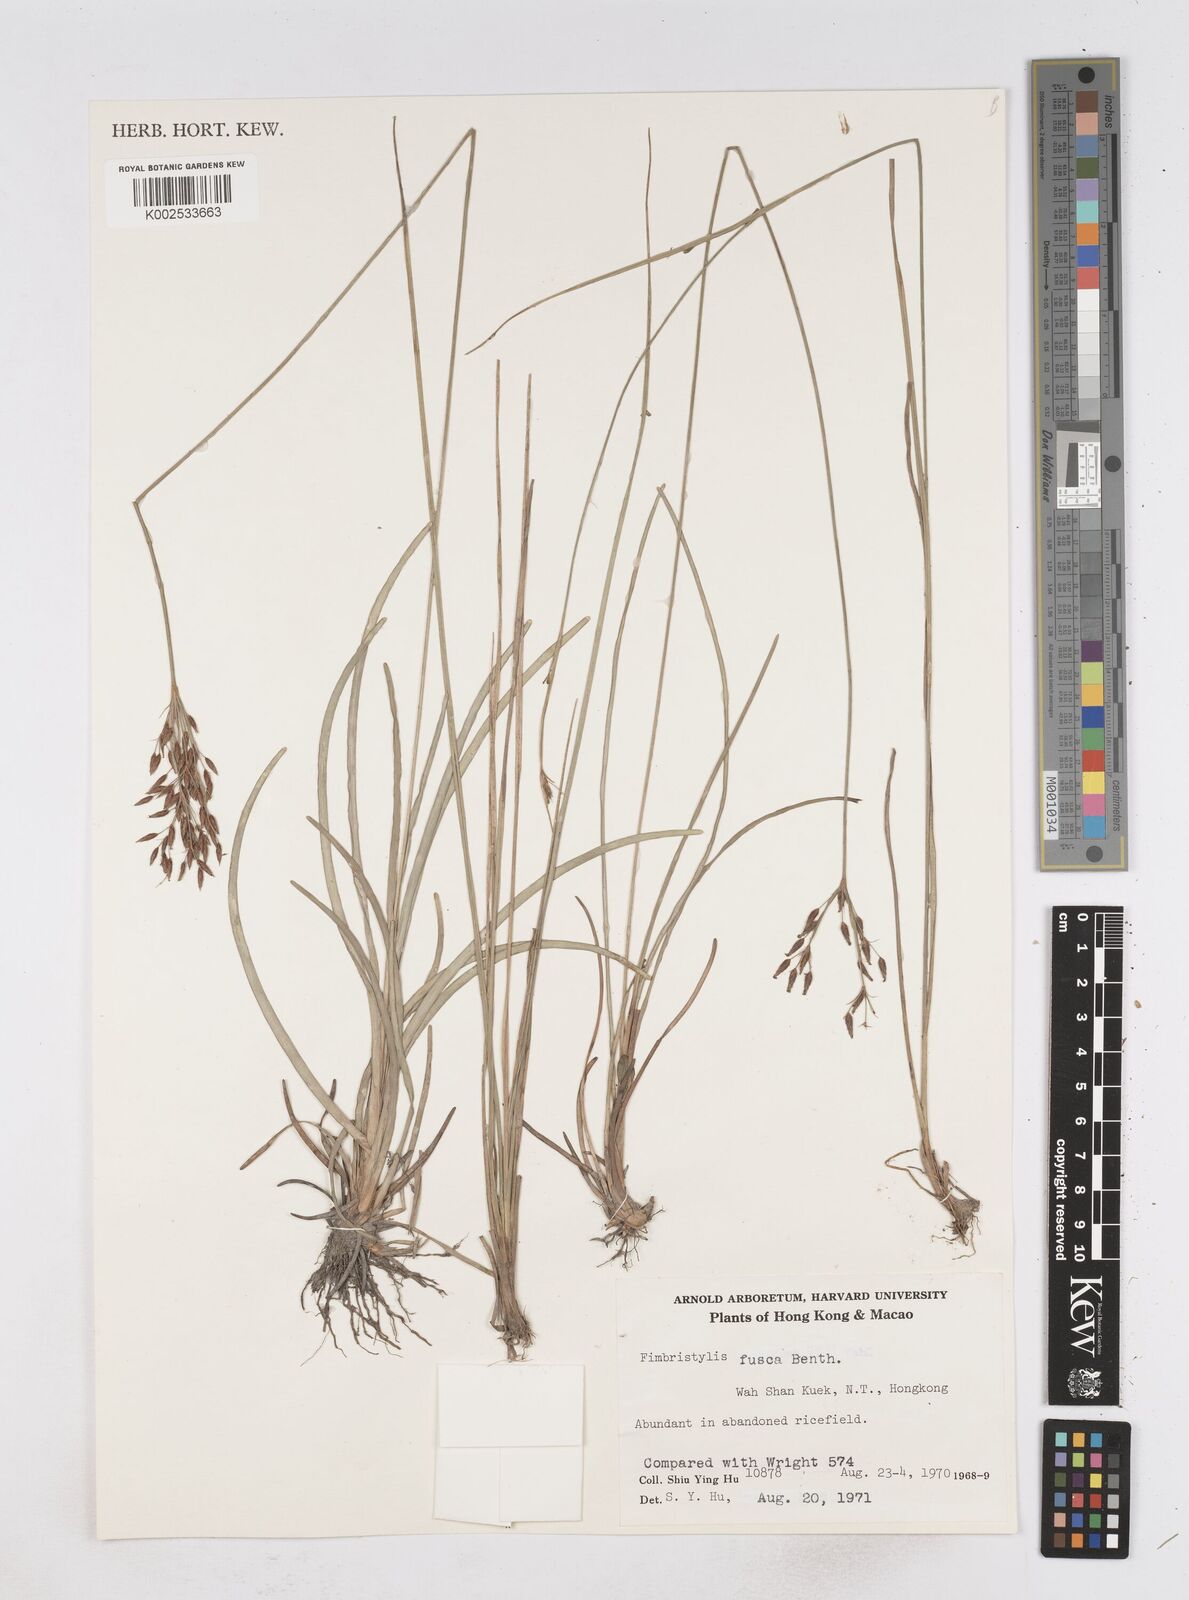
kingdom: Plantae
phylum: Tracheophyta
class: Liliopsida
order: Poales
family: Cyperaceae
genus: Fimbristylis
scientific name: Fimbristylis fusca
